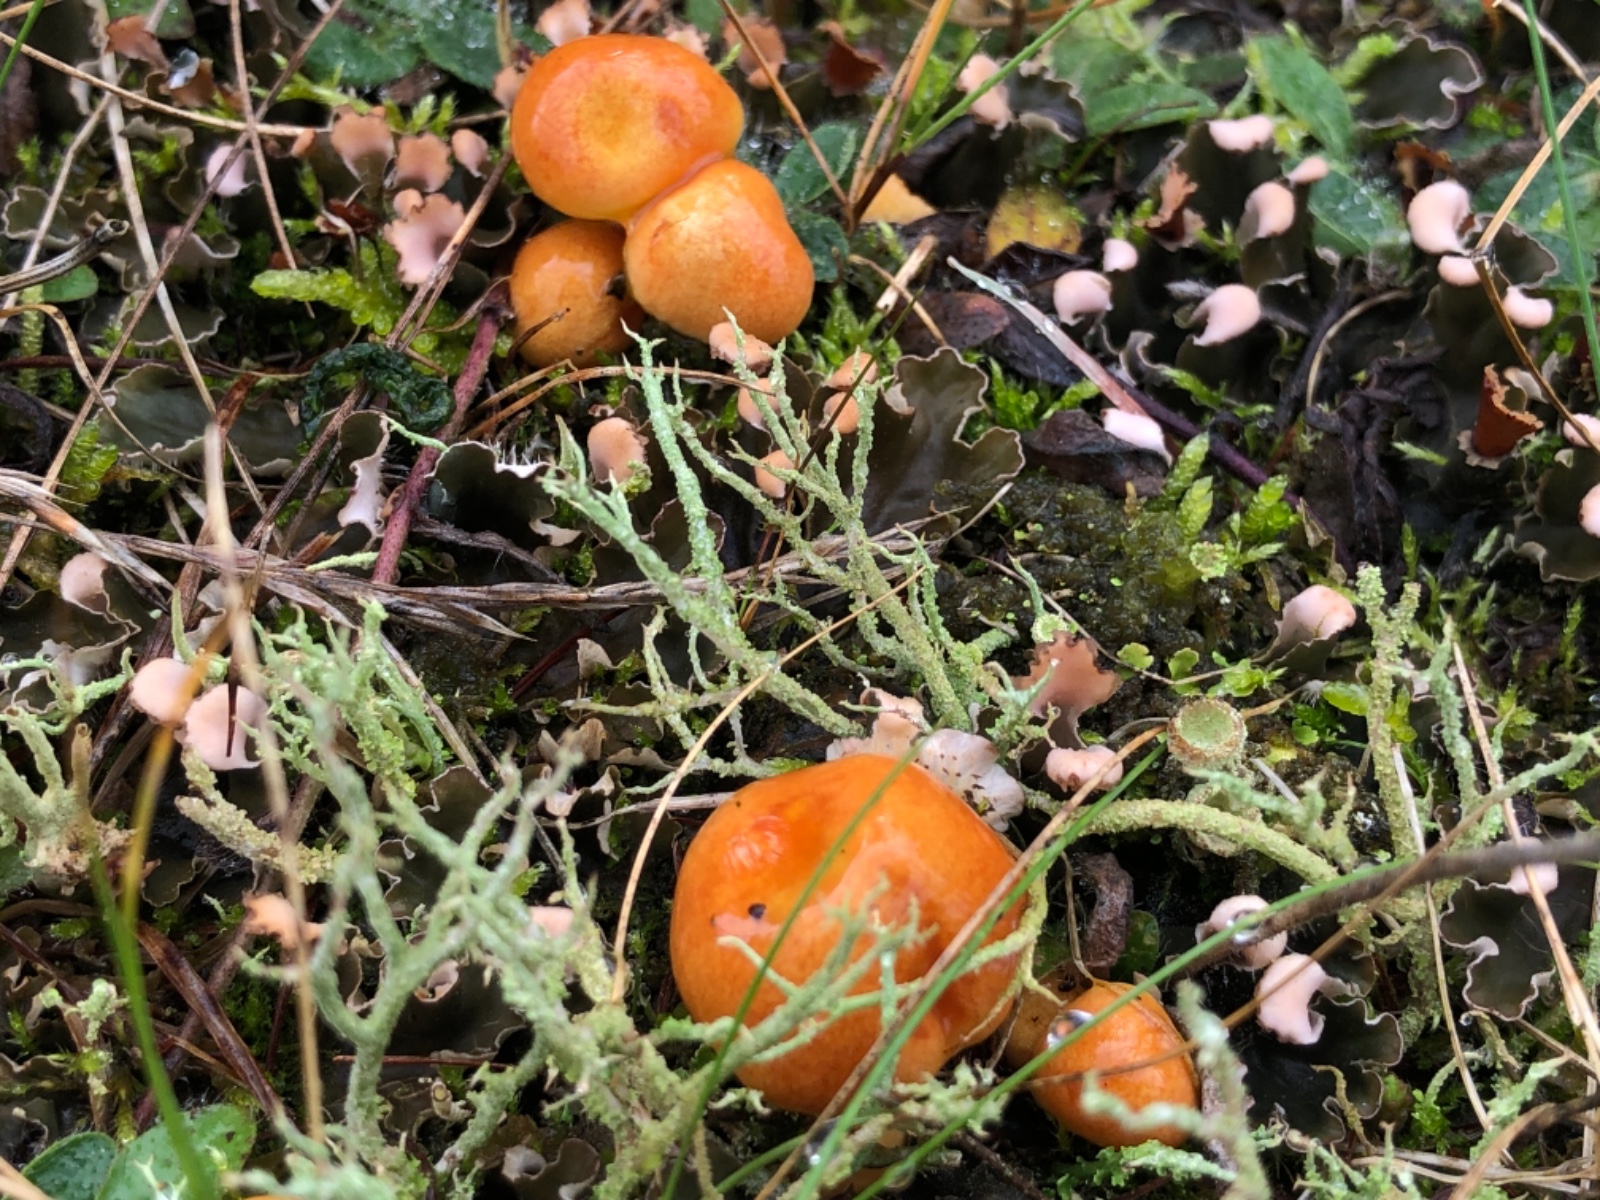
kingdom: Fungi
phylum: Basidiomycota
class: Agaricomycetes
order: Boletales
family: Suillaceae
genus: Suillus
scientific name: Suillus grevillei
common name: lærke-slimrørhat
